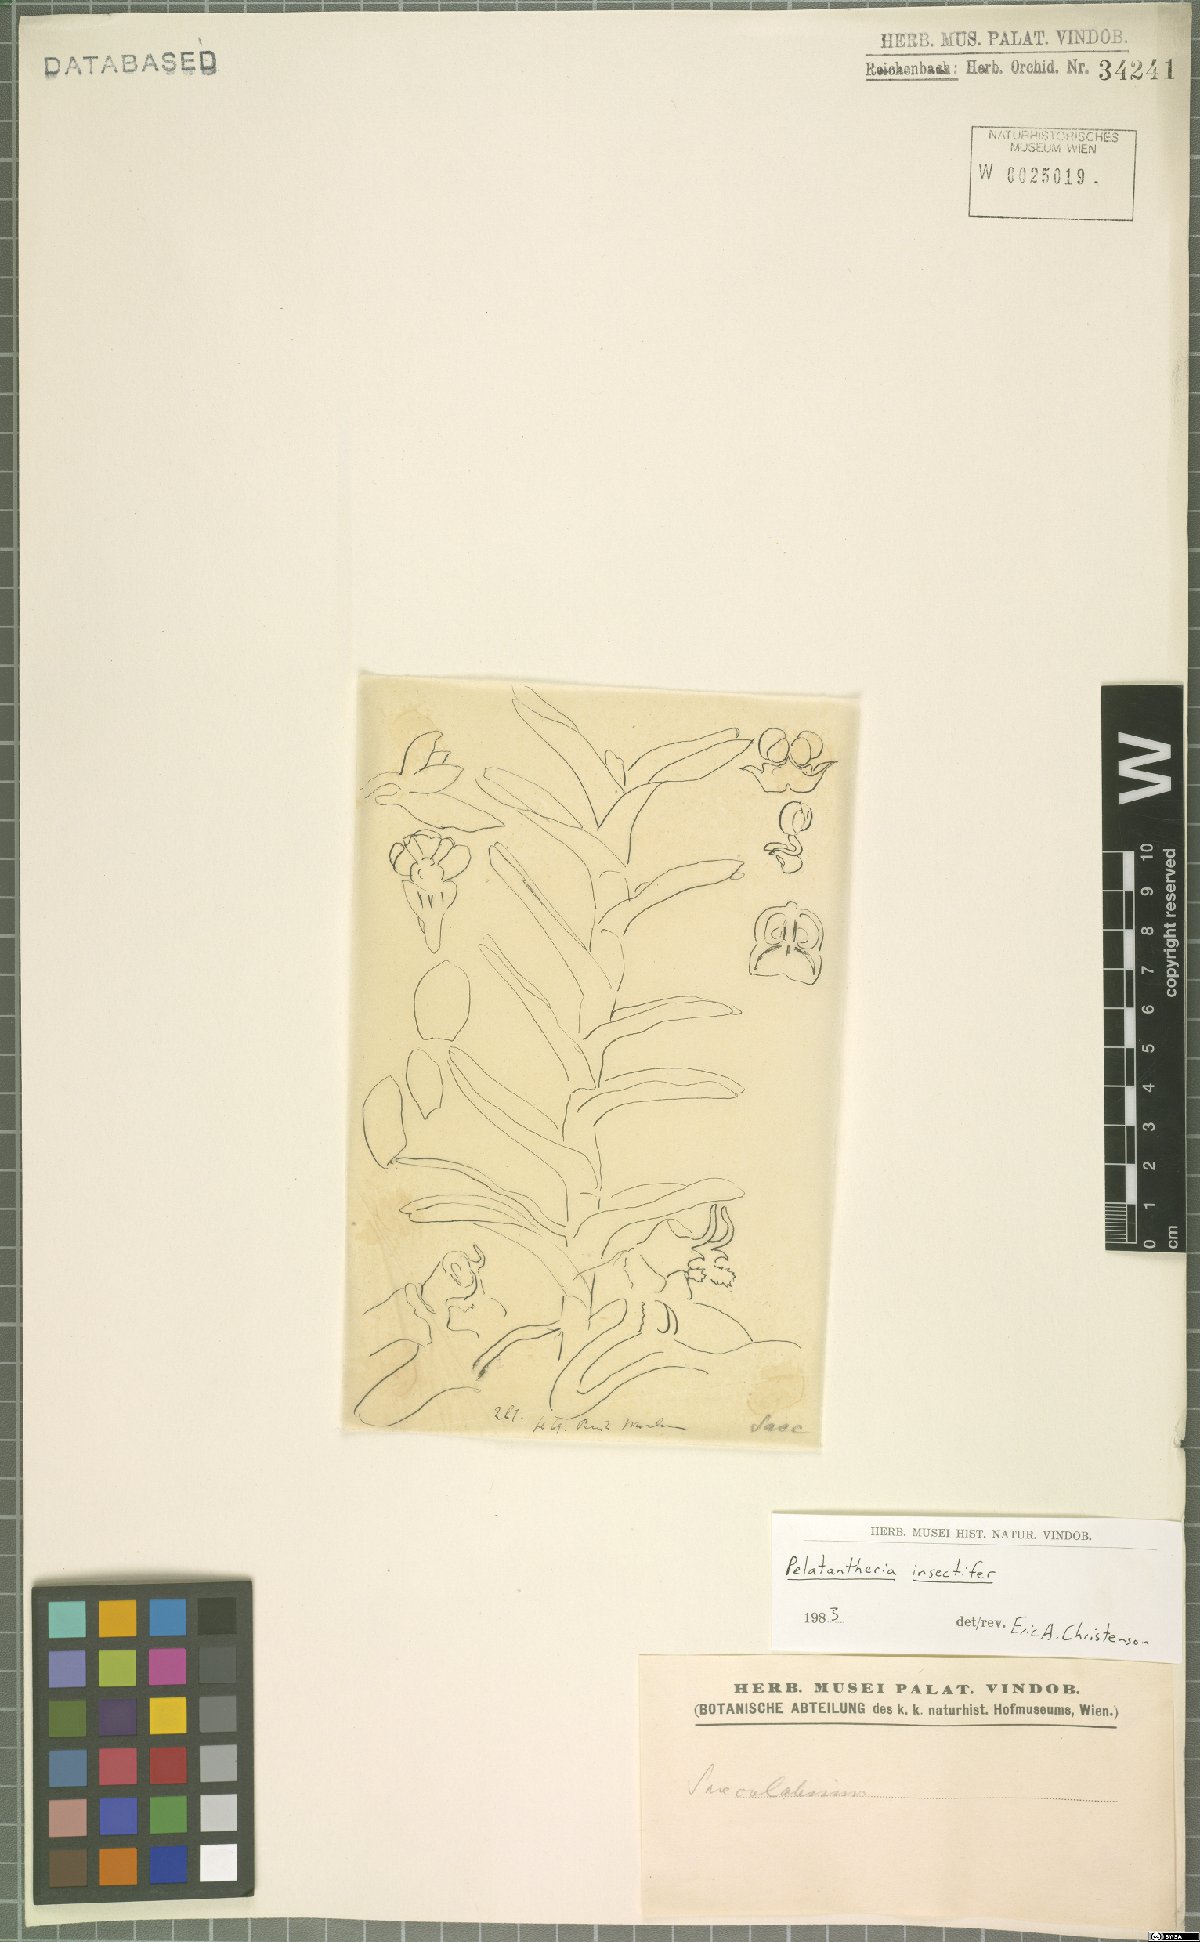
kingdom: Plantae
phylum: Tracheophyta
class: Liliopsida
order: Asparagales
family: Orchidaceae
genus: Pelatantheria
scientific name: Pelatantheria insectifera
